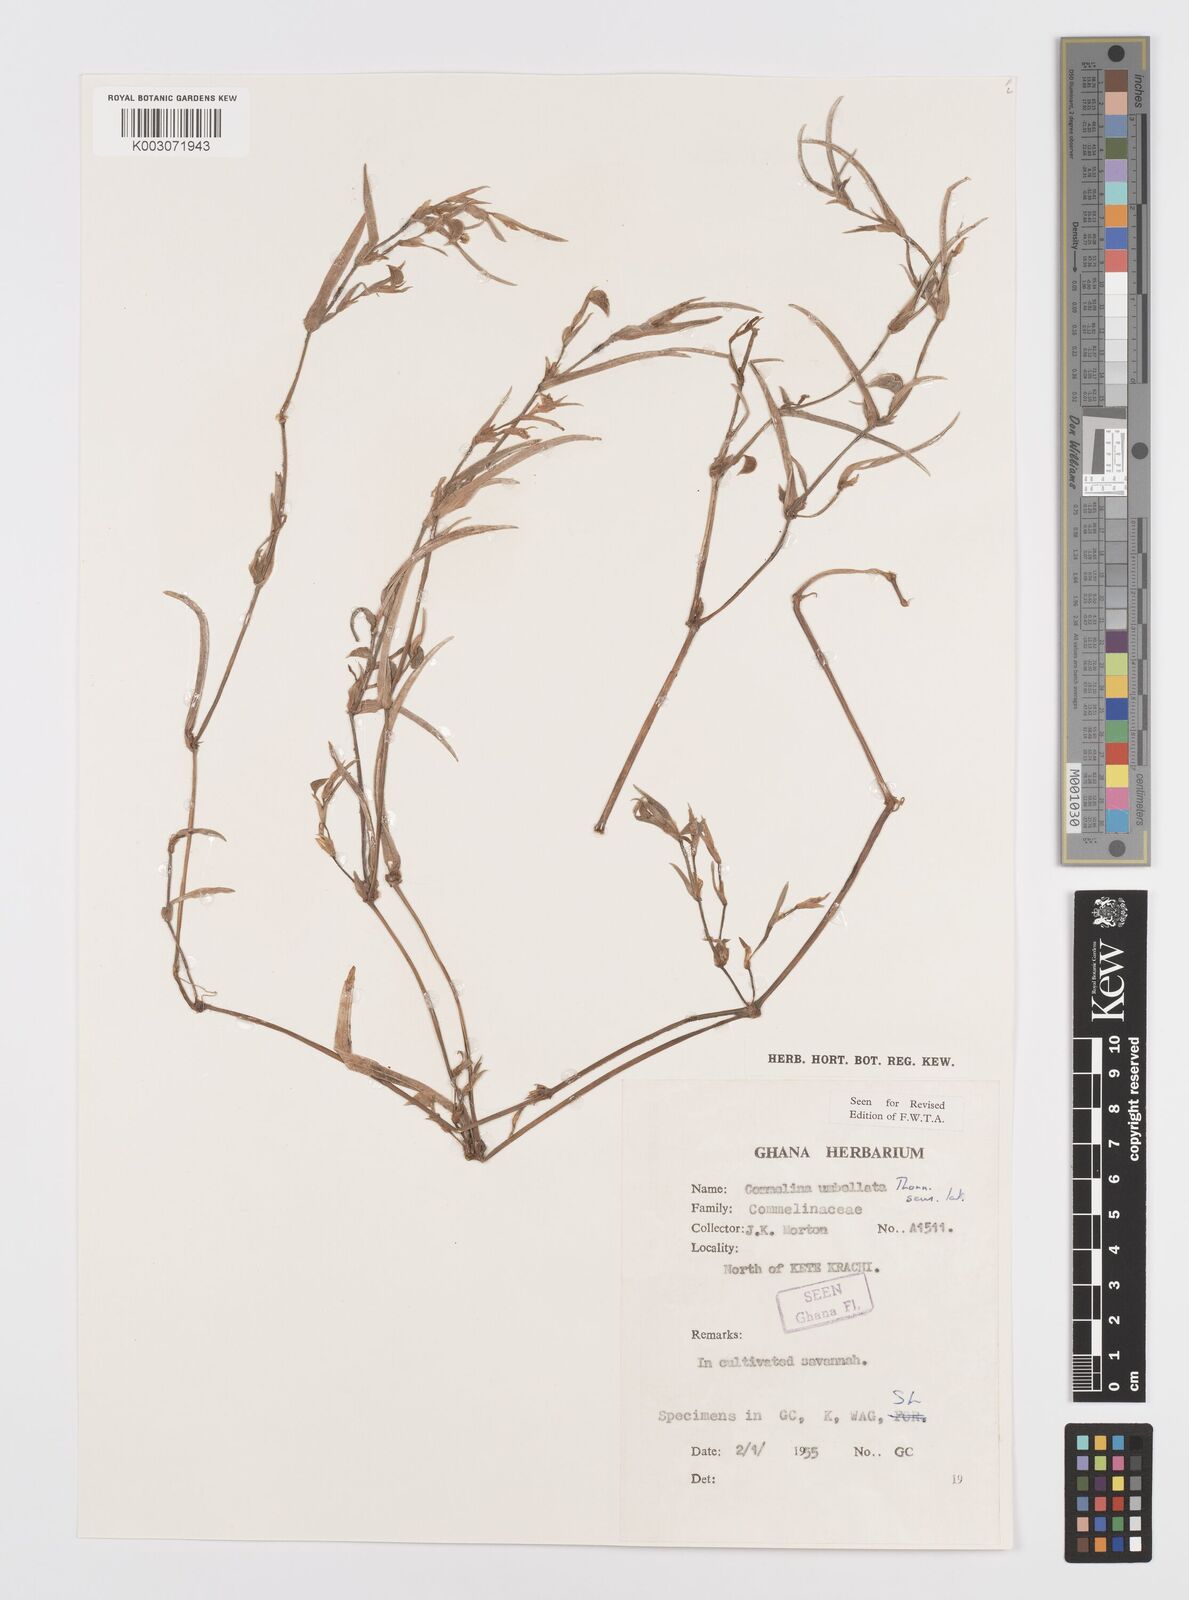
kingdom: Plantae
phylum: Tracheophyta
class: Liliopsida
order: Commelinales
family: Commelinaceae
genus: Commelina
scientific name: Commelina
